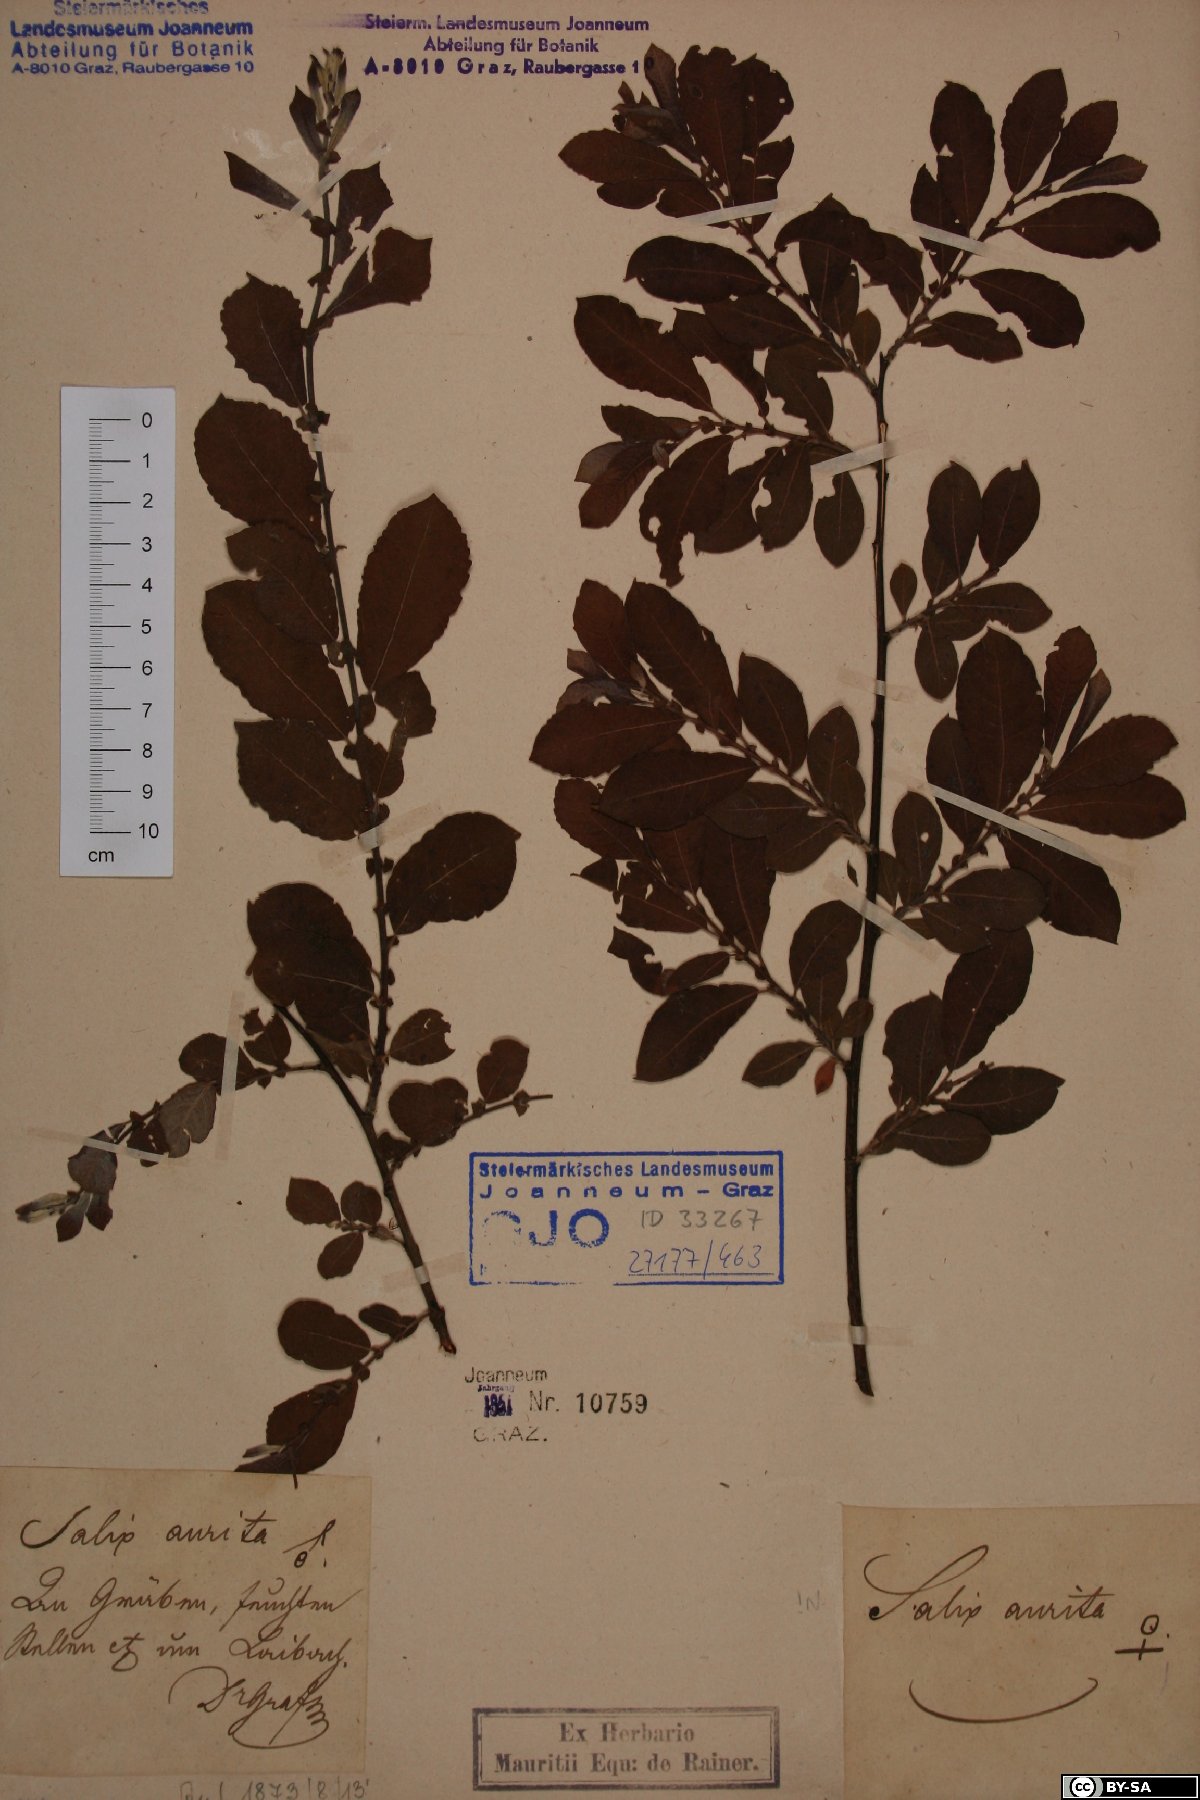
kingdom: Plantae
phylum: Tracheophyta
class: Magnoliopsida
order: Malpighiales
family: Salicaceae
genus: Salix
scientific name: Salix aurita
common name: Eared willow
